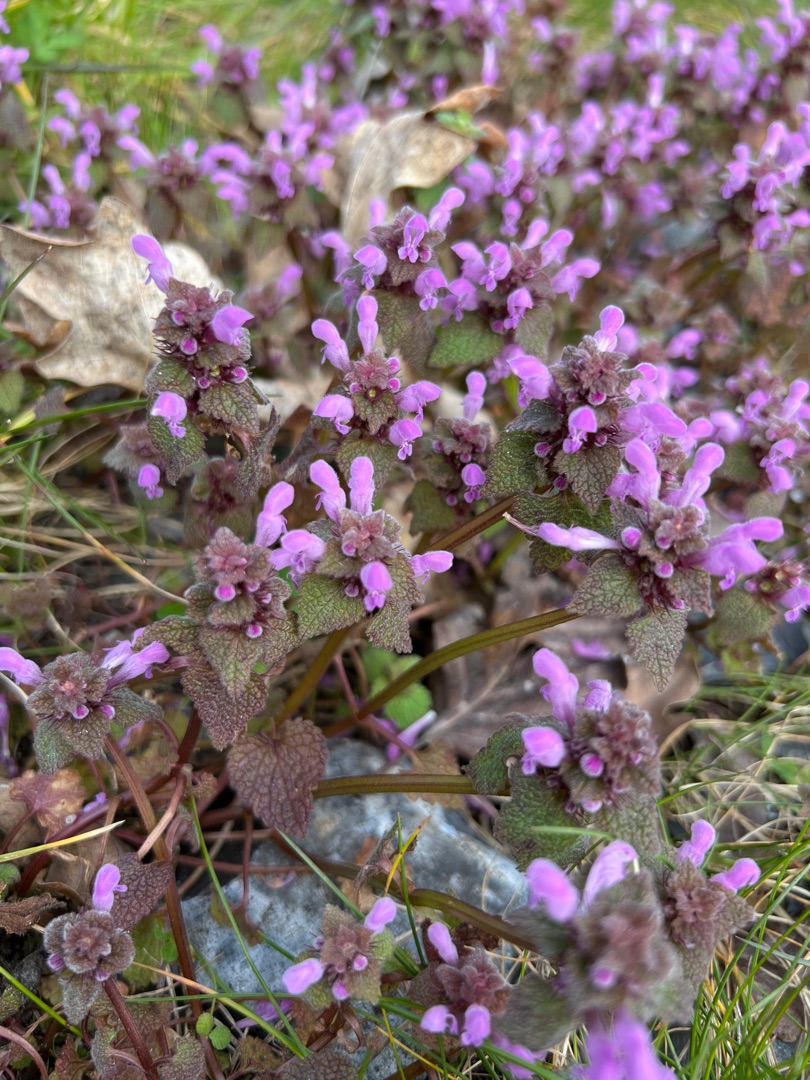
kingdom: Plantae
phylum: Tracheophyta
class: Magnoliopsida
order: Lamiales
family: Lamiaceae
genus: Lamium
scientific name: Lamium purpureum
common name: Rød tvetand
